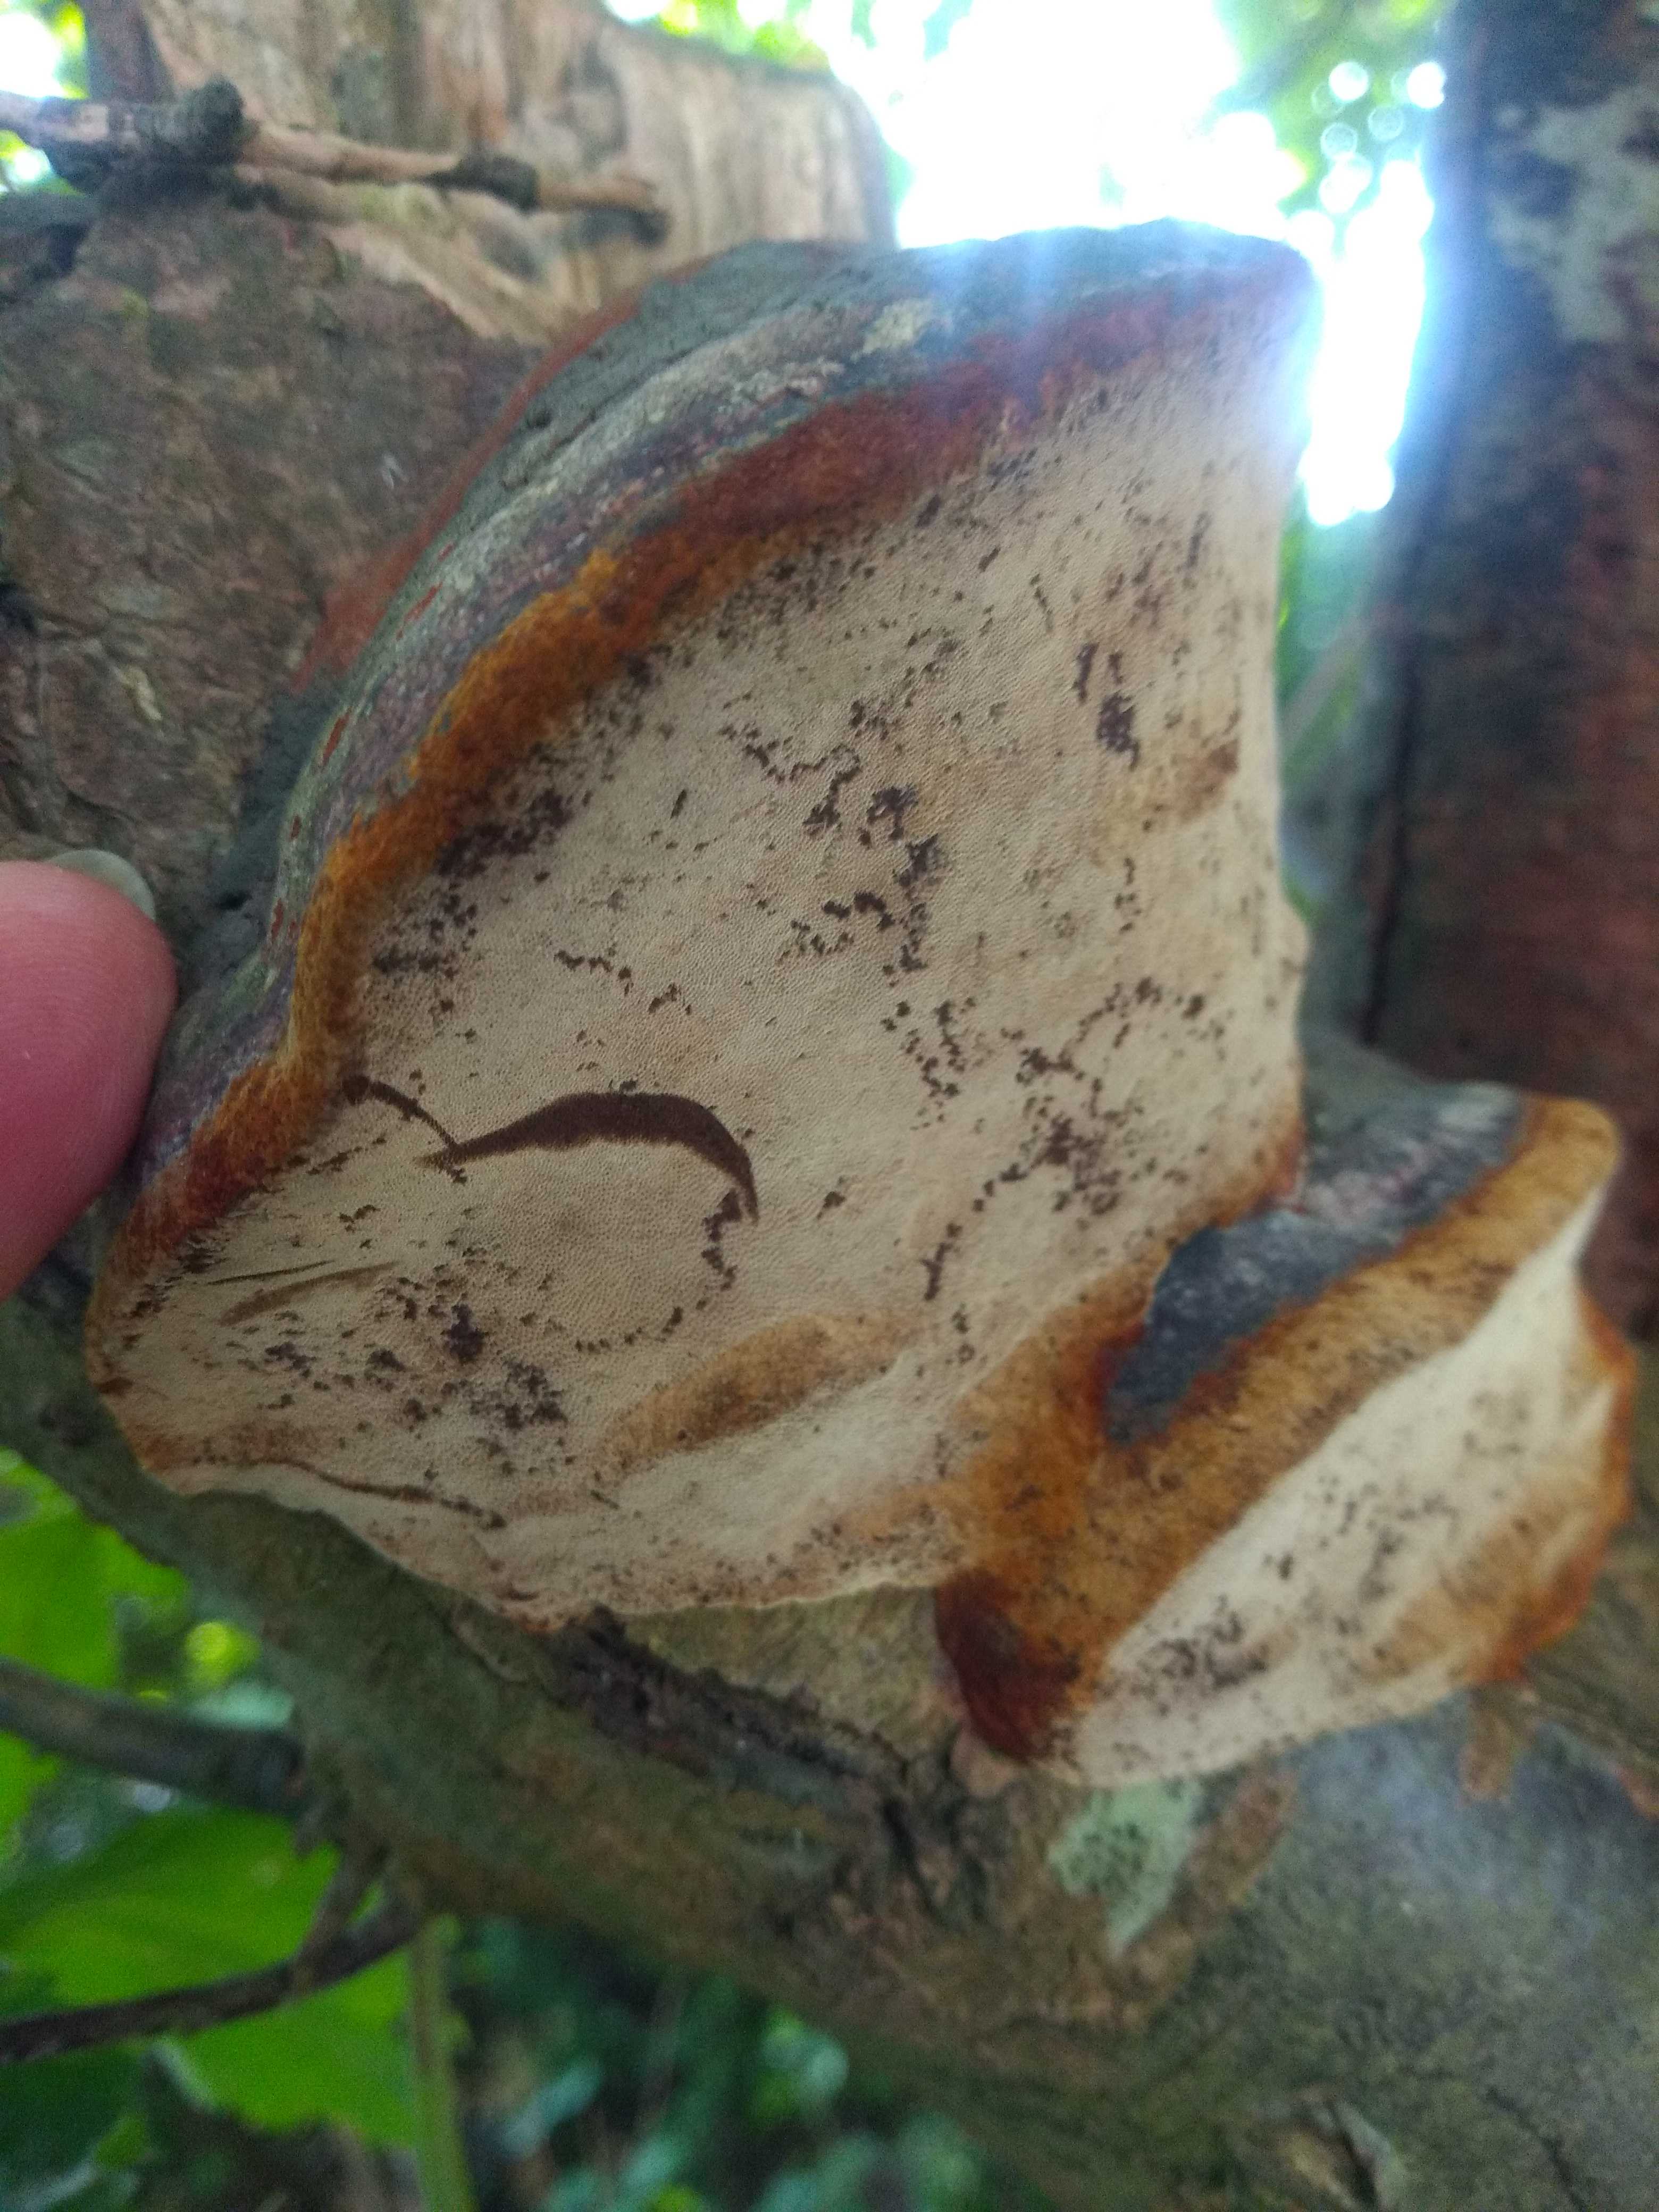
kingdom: Fungi
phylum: Basidiomycota
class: Agaricomycetes
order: Hymenochaetales
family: Hymenochaetaceae
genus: Phellinus
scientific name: Phellinus pomaceus
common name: blomme-ildporesvamp
